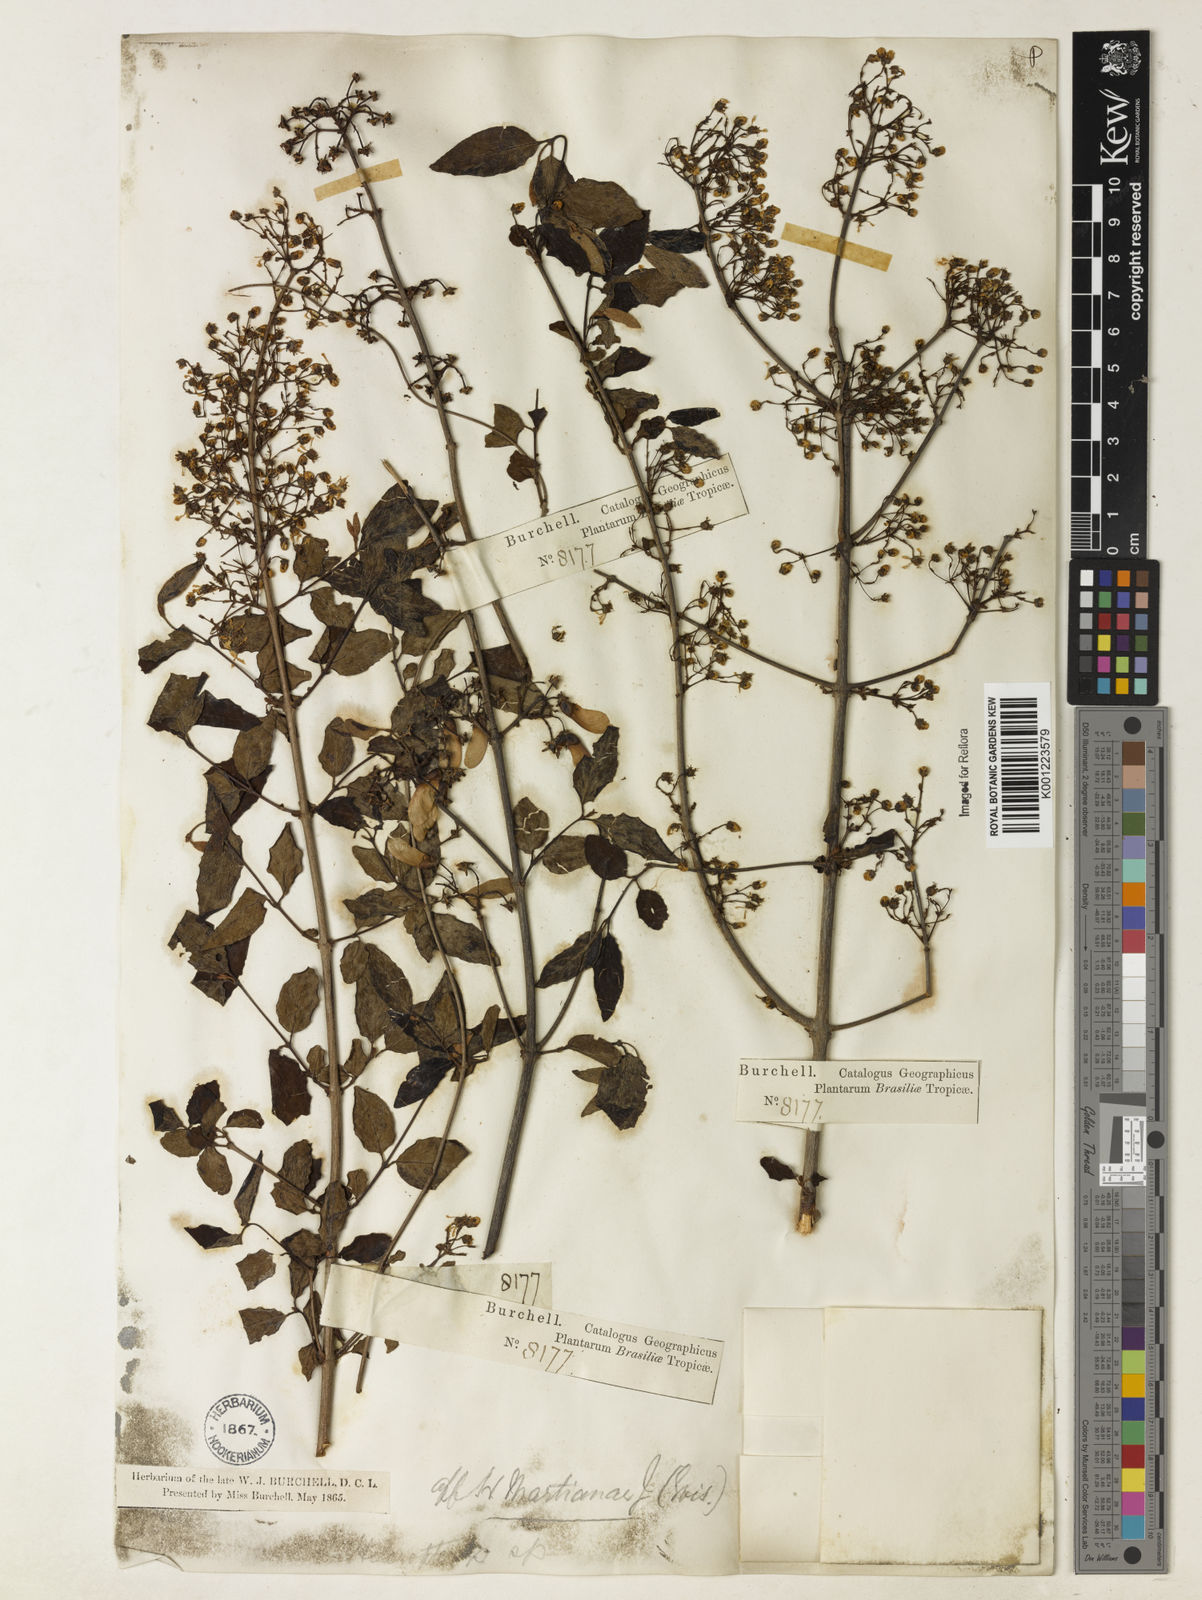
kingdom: Plantae
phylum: Tracheophyta
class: Magnoliopsida
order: Malpighiales
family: Malpighiaceae
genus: Heteropterys
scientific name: Heteropterys syringifolia
